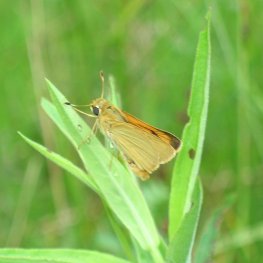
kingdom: Animalia
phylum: Arthropoda
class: Insecta
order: Lepidoptera
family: Hesperiidae
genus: Atrytone
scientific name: Atrytone delaware
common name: Delaware Skipper
